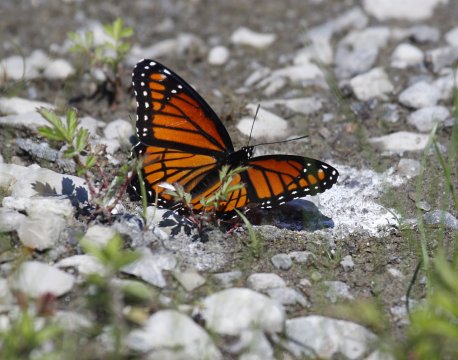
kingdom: Animalia
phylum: Arthropoda
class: Insecta
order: Lepidoptera
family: Nymphalidae
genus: Limenitis
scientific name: Limenitis archippus
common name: Viceroy
